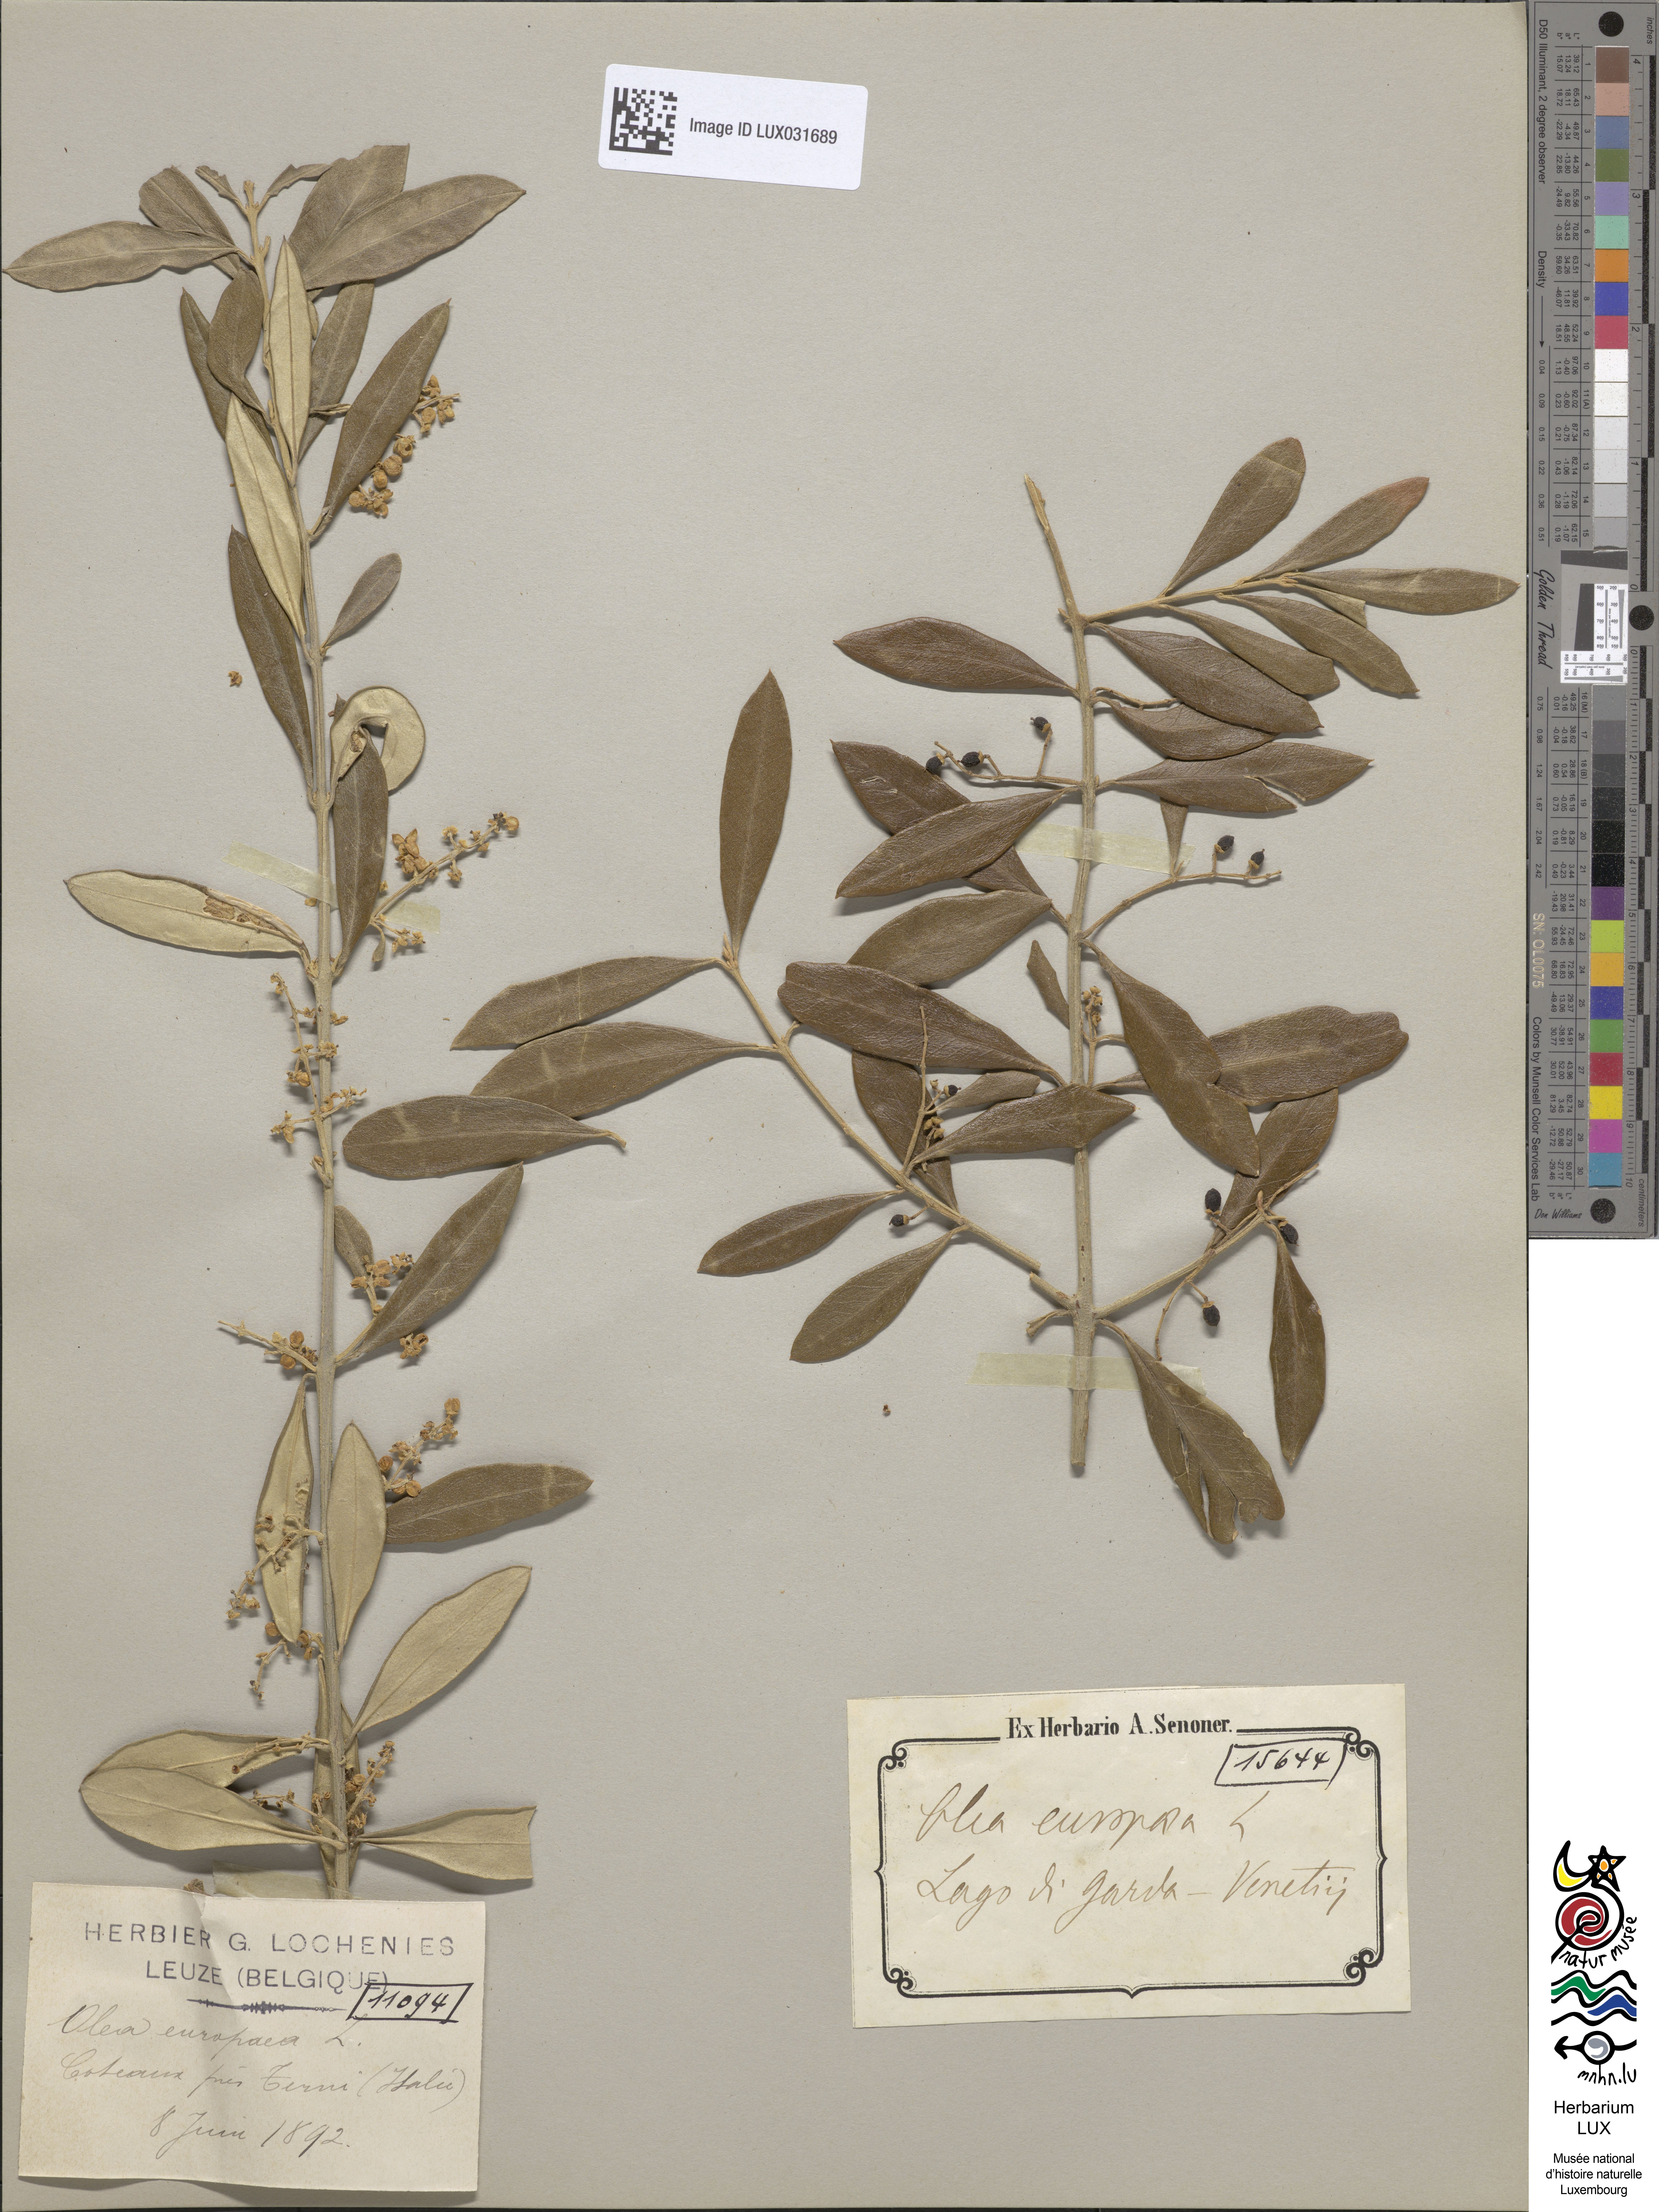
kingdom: Plantae
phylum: Tracheophyta
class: Magnoliopsida
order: Lamiales
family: Oleaceae
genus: Olea
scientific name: Olea europaea
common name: Olive
